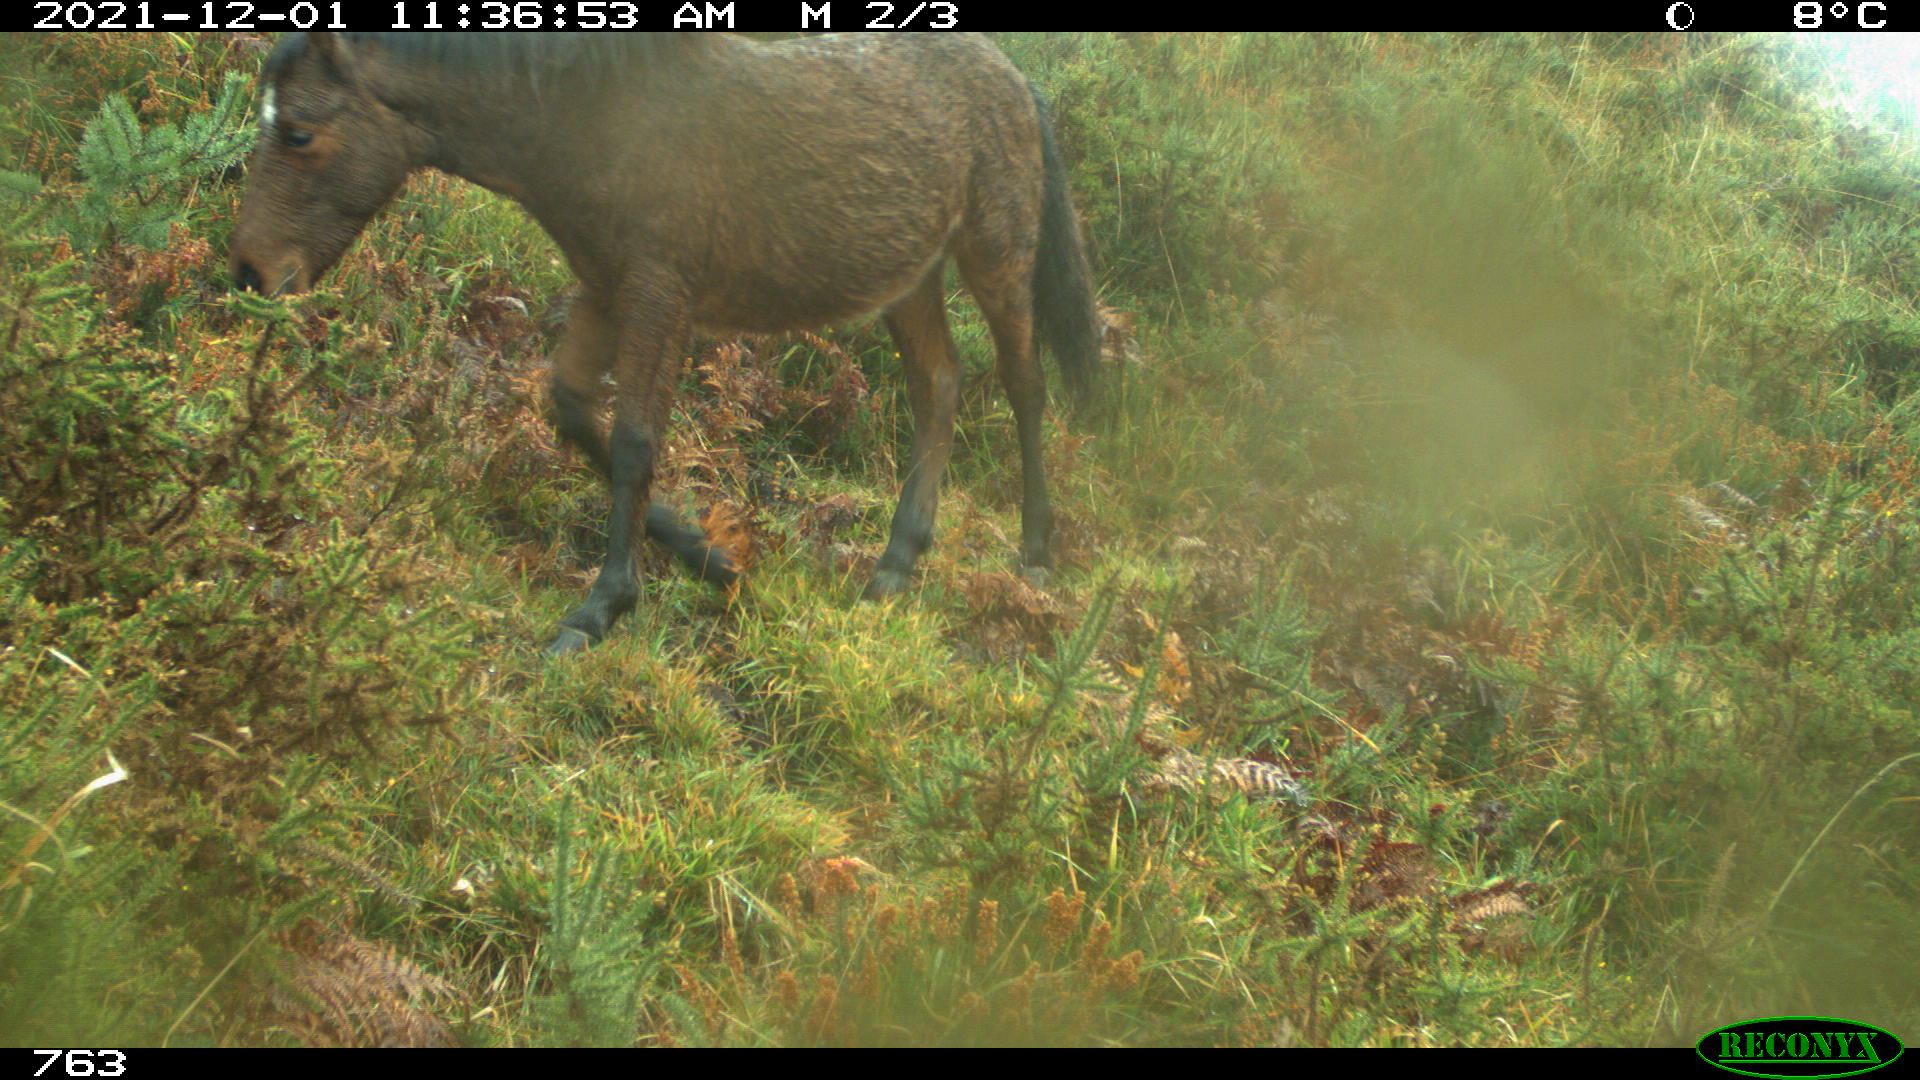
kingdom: Animalia
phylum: Chordata
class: Mammalia
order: Perissodactyla
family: Equidae
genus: Equus
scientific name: Equus caballus
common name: Horse
